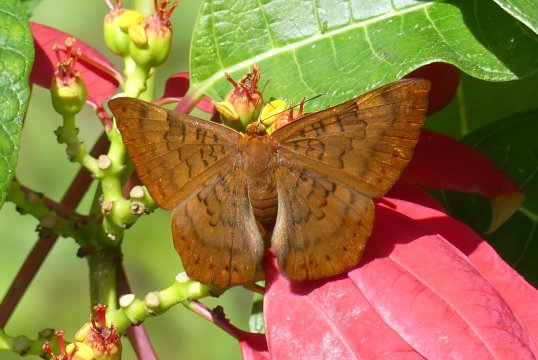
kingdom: Animalia
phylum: Arthropoda
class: Insecta
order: Lepidoptera
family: Lycaenidae
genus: Emesis
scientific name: Emesis mandana
